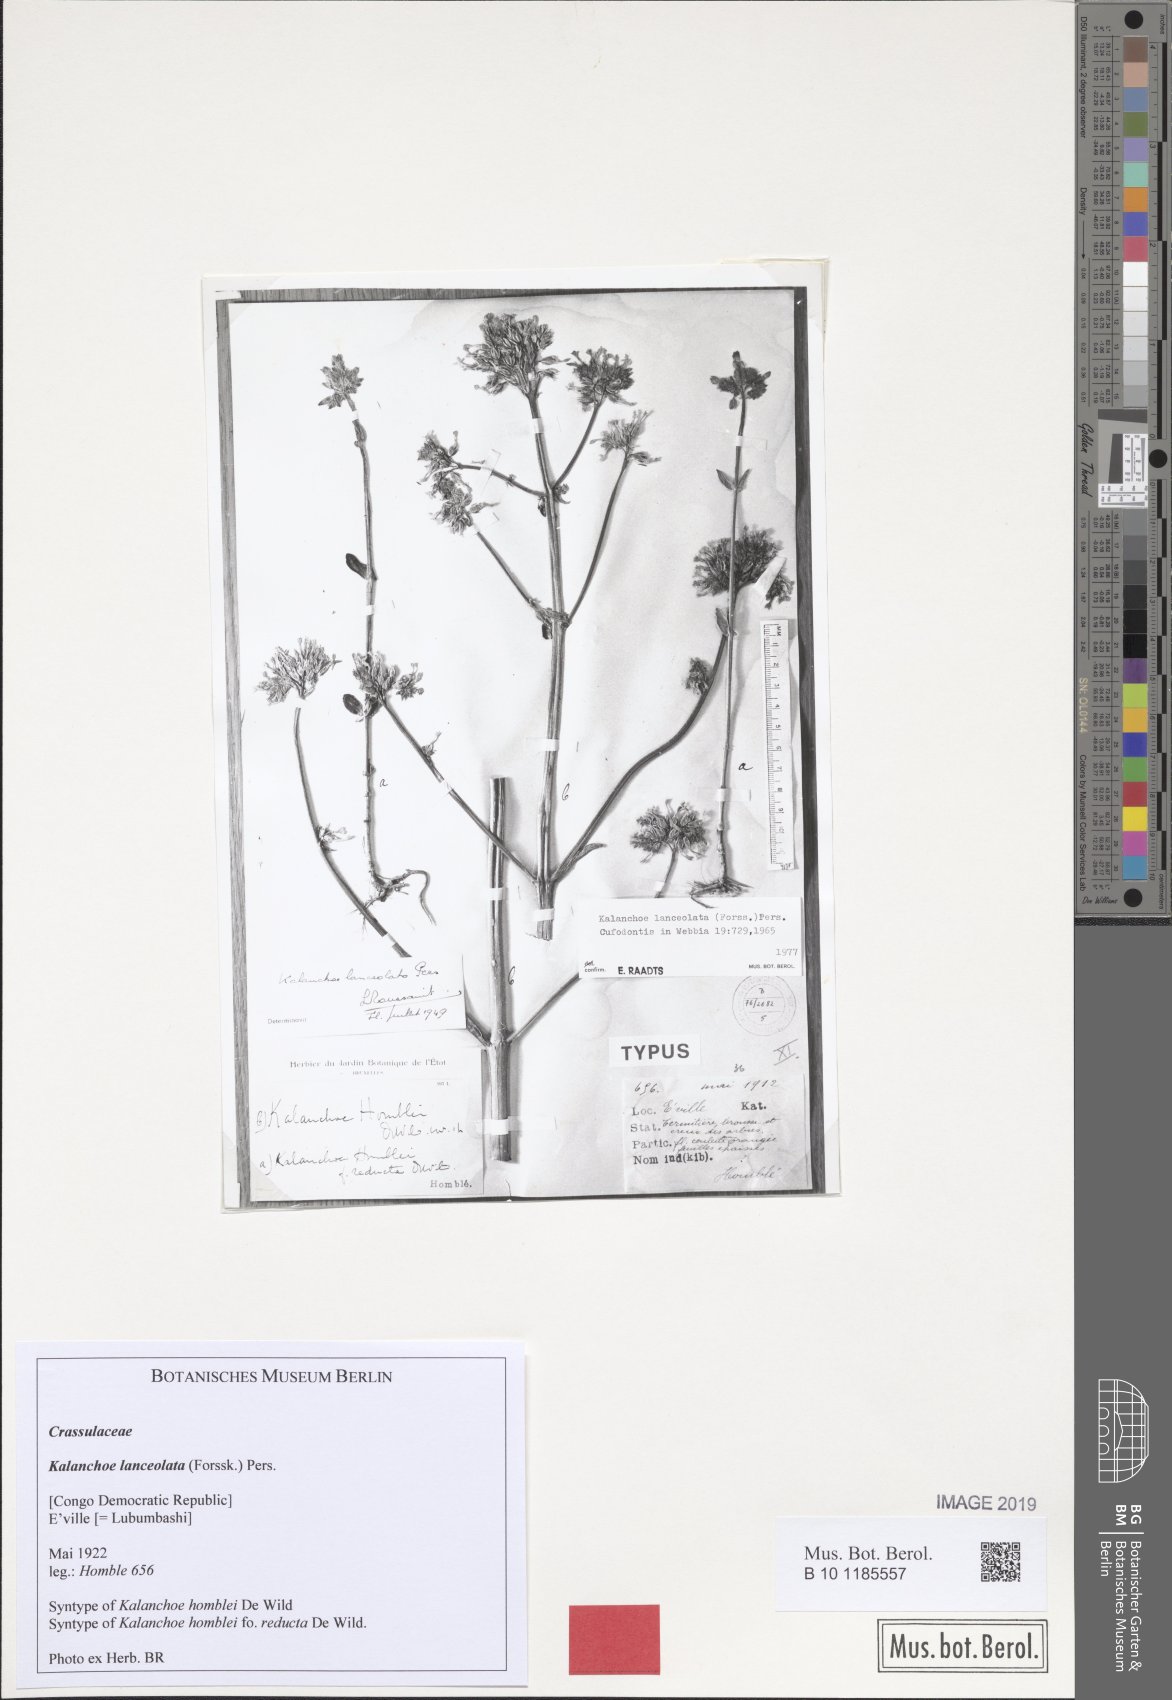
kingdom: Plantae
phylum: Tracheophyta
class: Magnoliopsida
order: Saxifragales
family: Crassulaceae
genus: Kalanchoe
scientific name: Kalanchoe lanceolata
